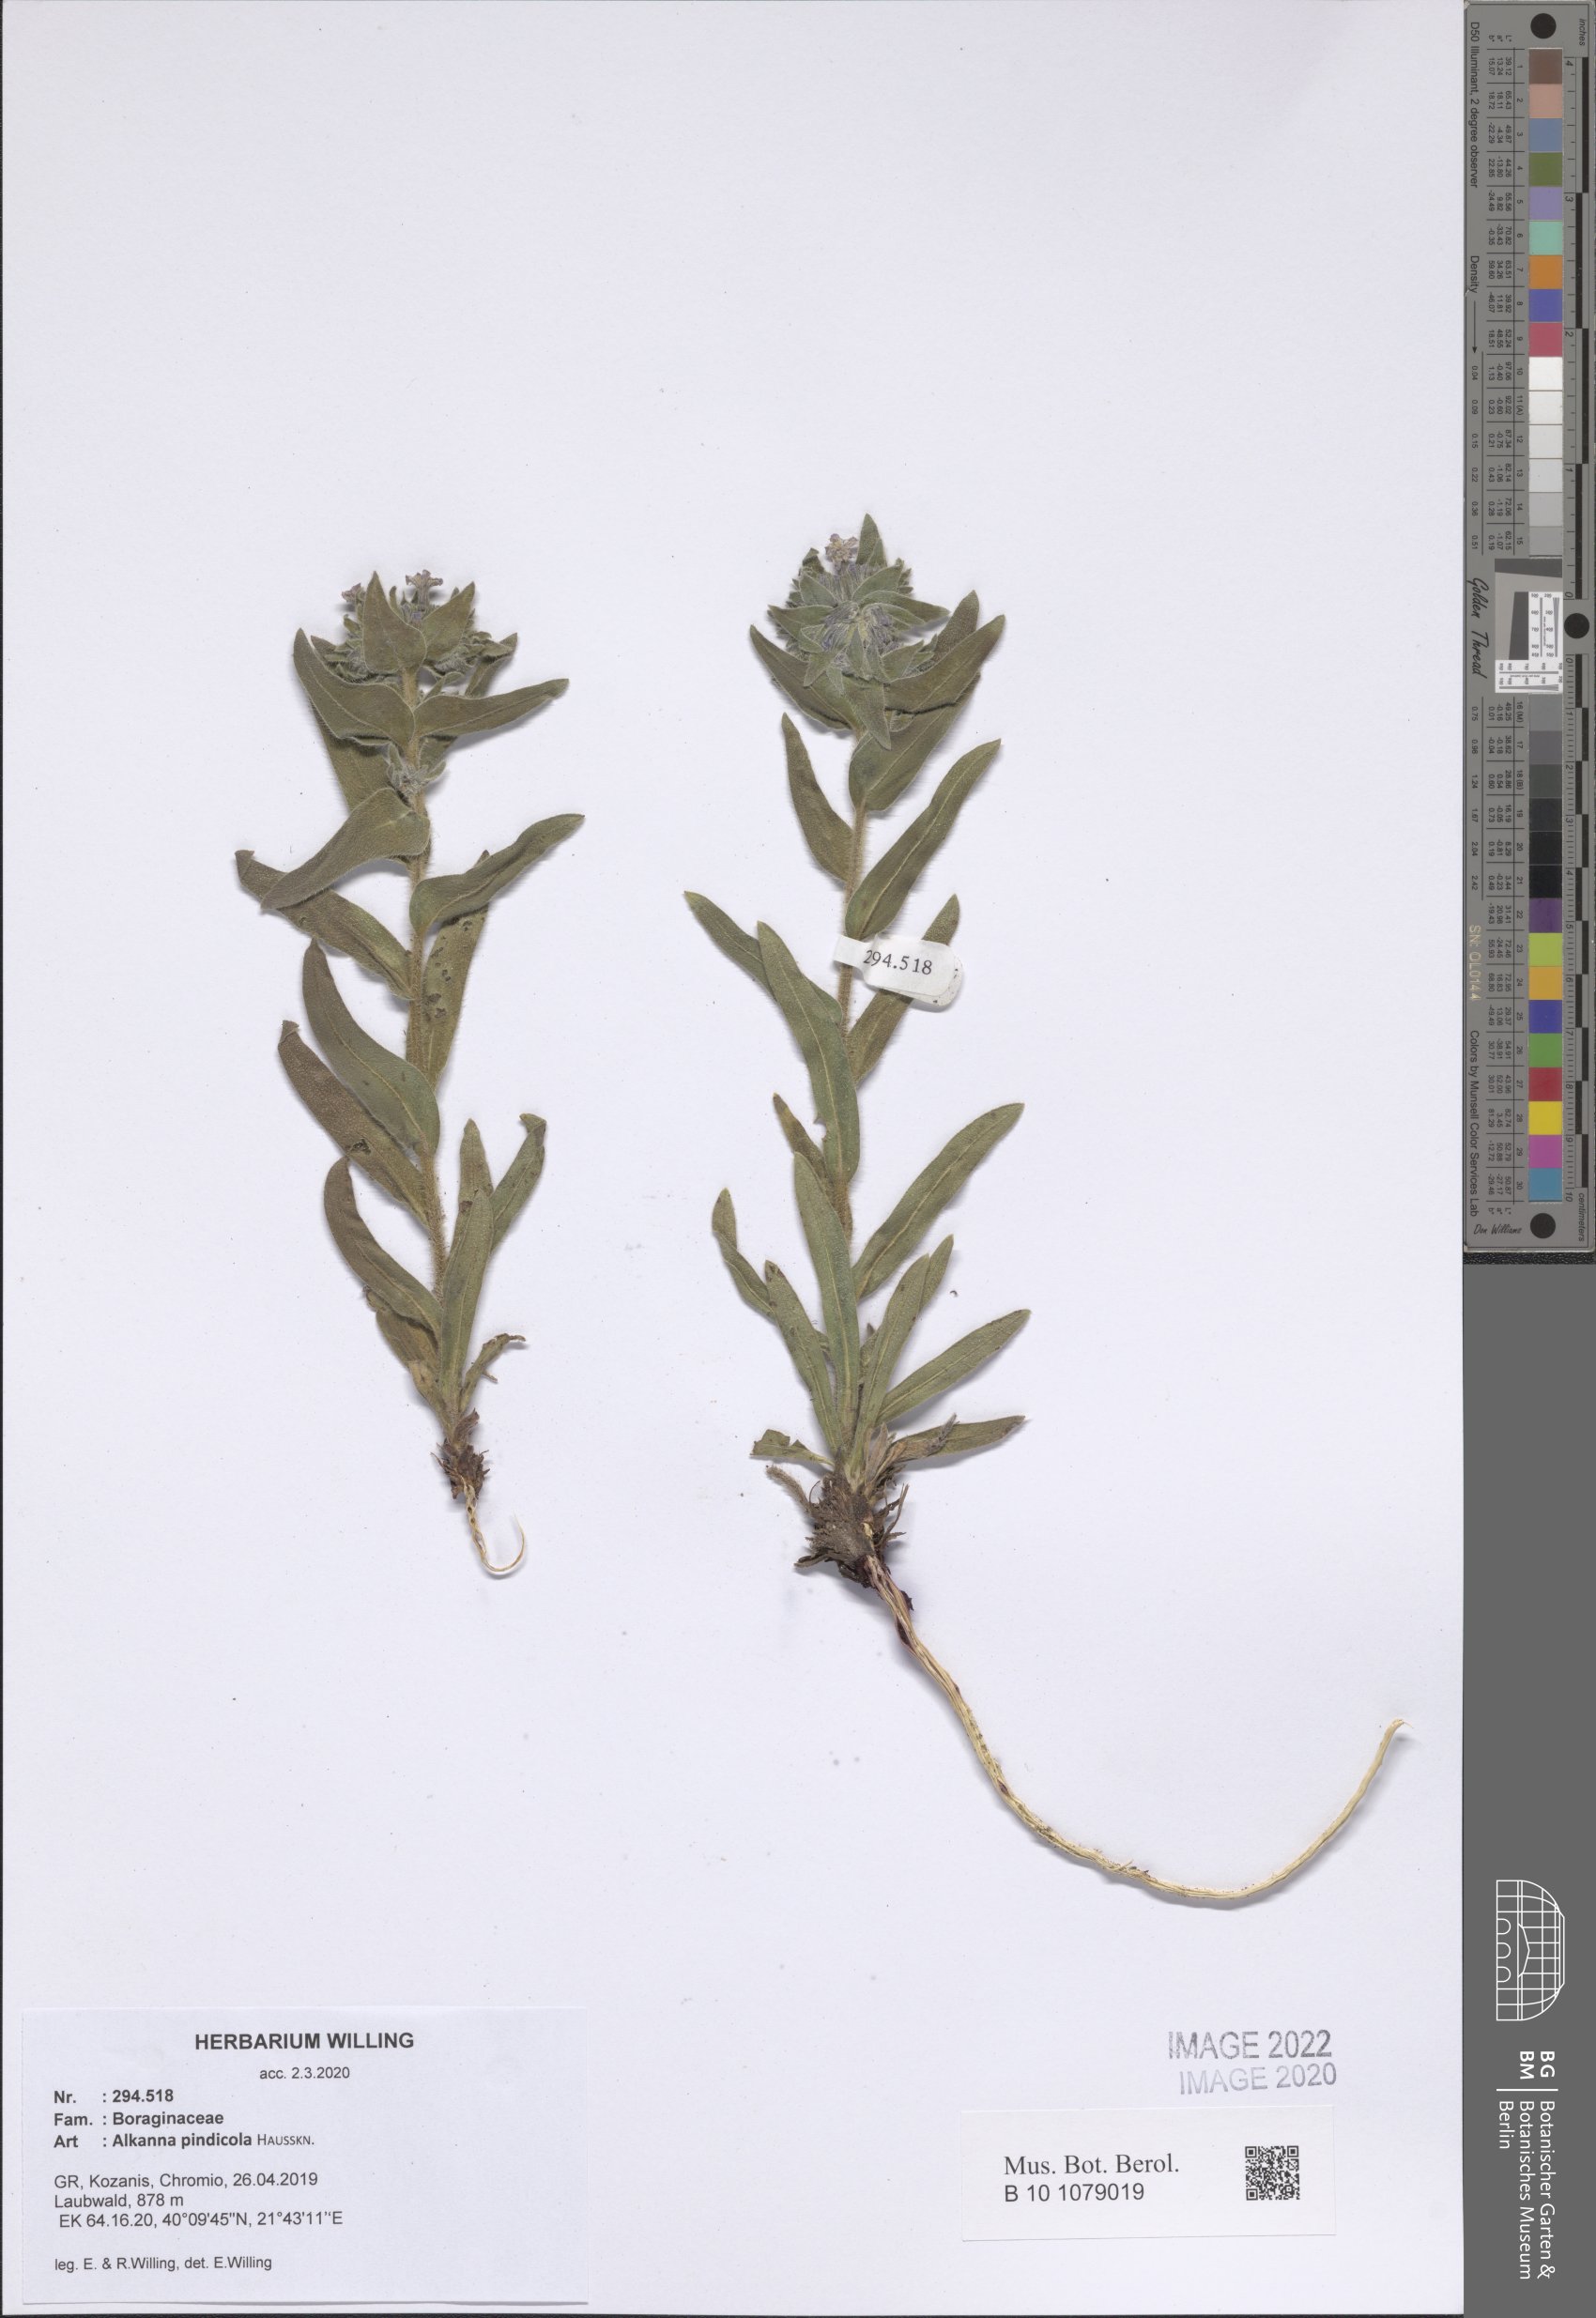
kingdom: Plantae
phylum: Tracheophyta
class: Magnoliopsida
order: Boraginales
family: Boraginaceae
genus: Alkanna
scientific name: Alkanna pindicola
